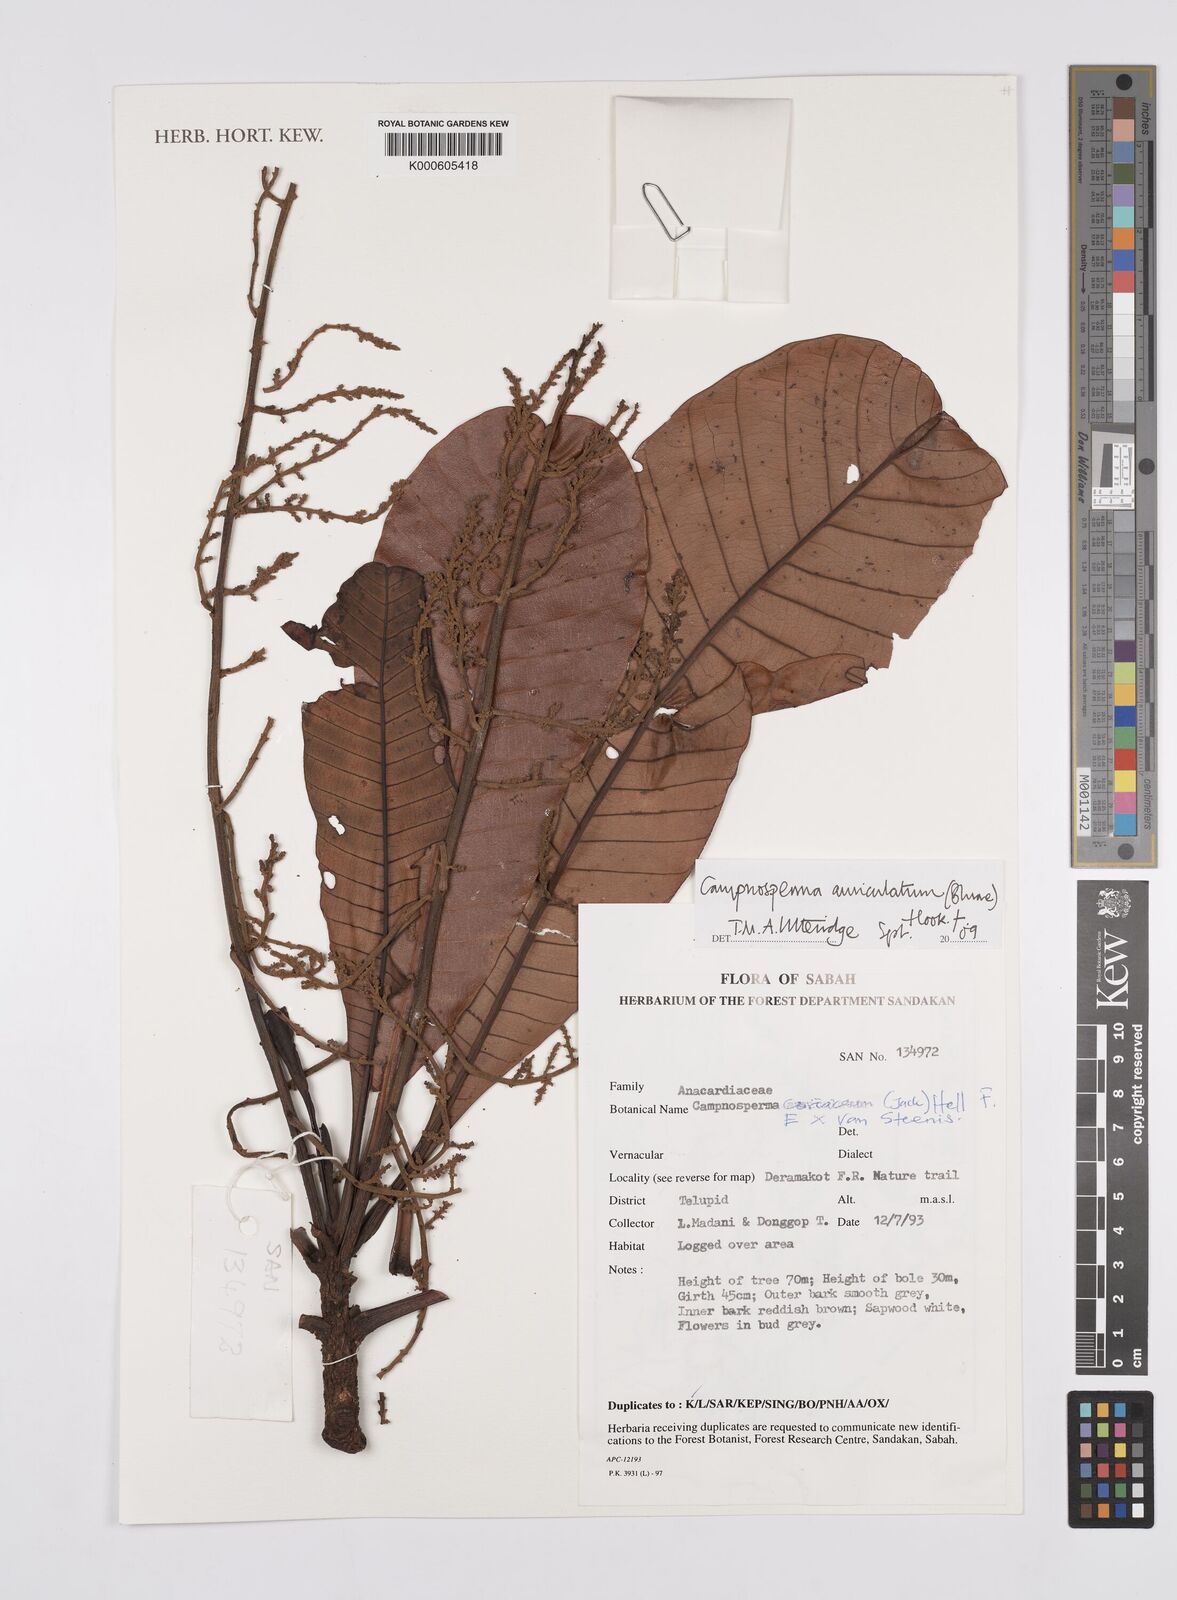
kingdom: Plantae
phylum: Tracheophyta
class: Magnoliopsida
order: Sapindales
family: Anacardiaceae
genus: Campnosperma
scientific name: Campnosperma auriculatum
